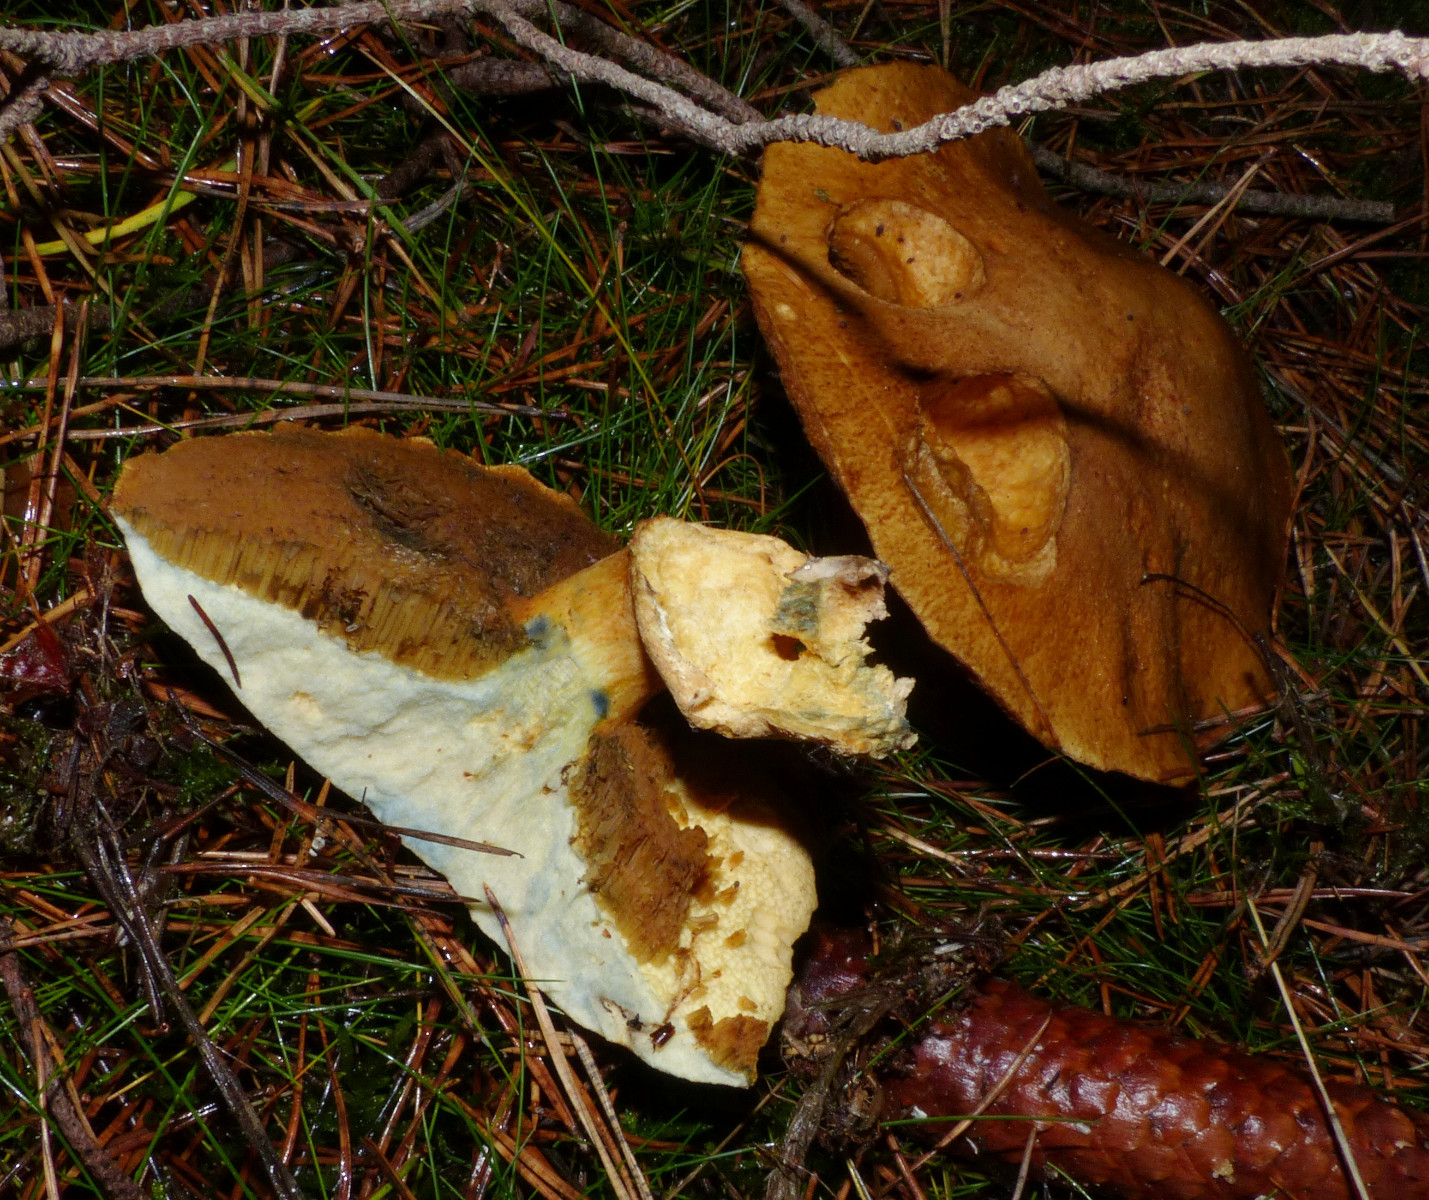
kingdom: Fungi
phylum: Basidiomycota
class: Agaricomycetes
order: Boletales
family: Suillaceae
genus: Suillus
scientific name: Suillus variegatus
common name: broget slimrørhat
